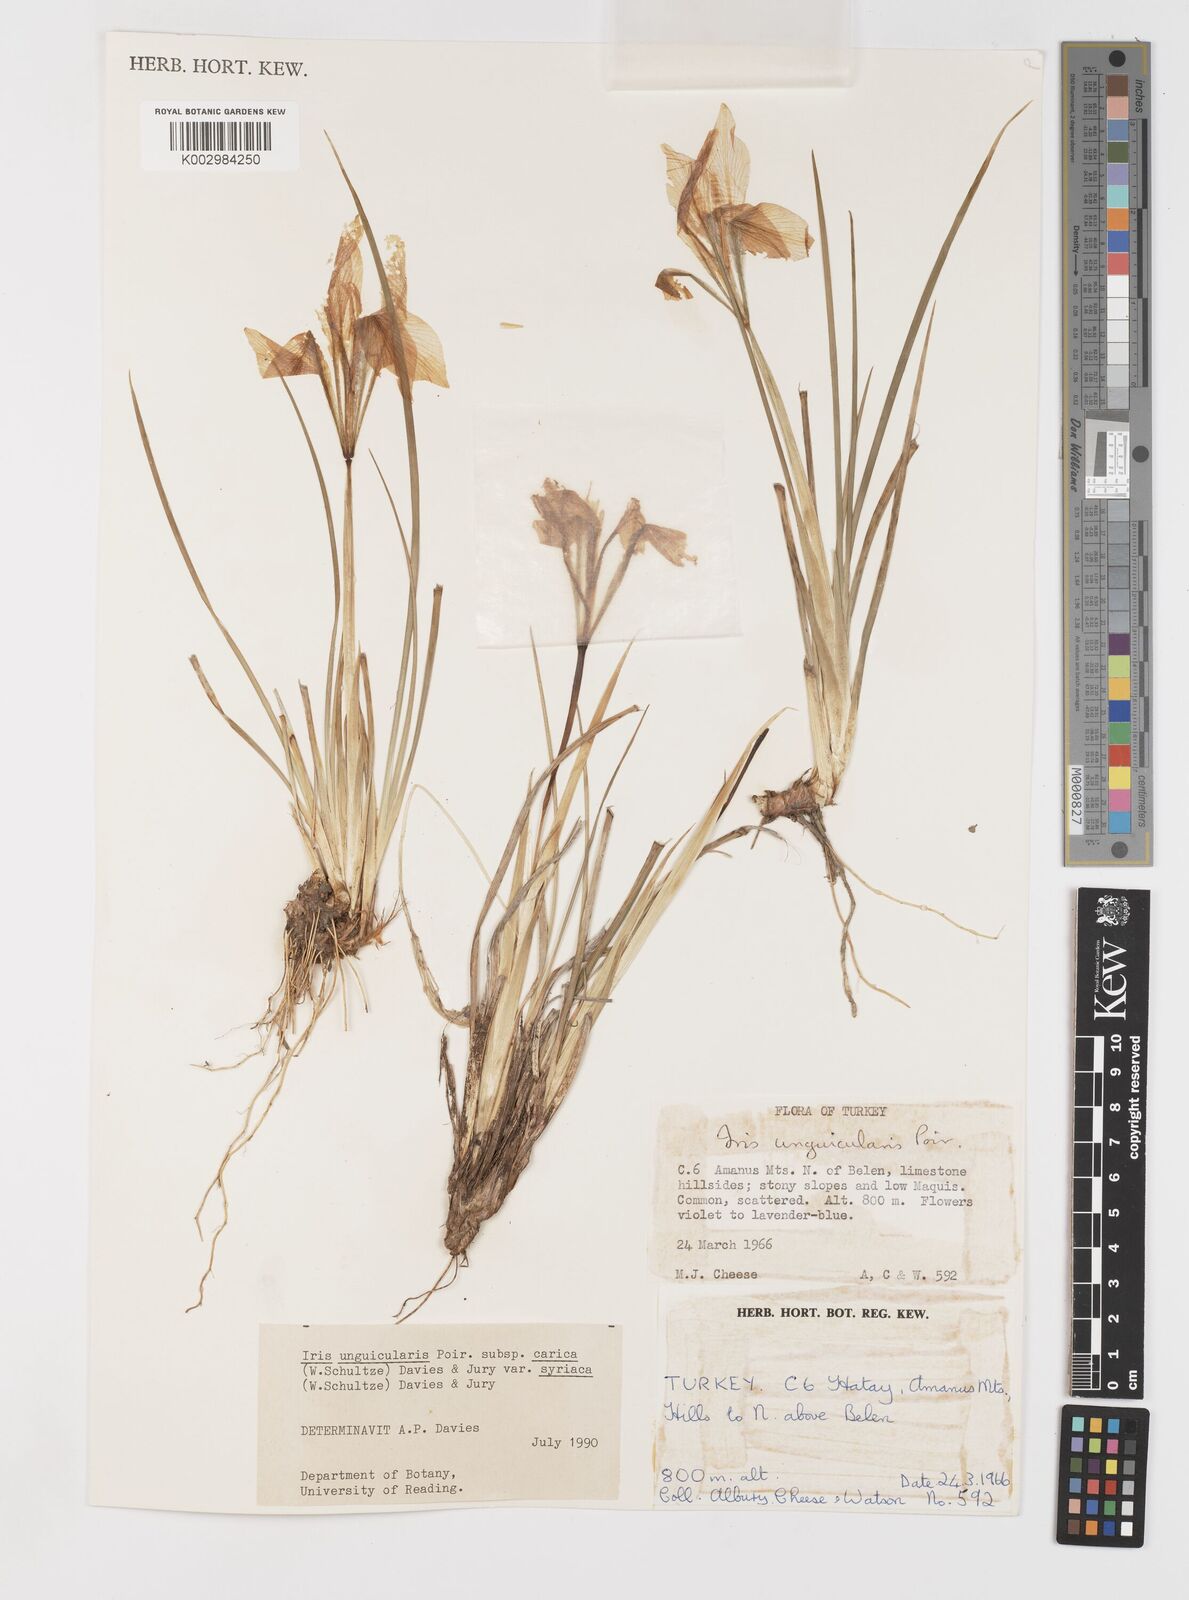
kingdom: Plantae
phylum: Tracheophyta
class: Liliopsida
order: Asparagales
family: Iridaceae
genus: Iris
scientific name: Iris unguicularis
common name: Algerian iris
